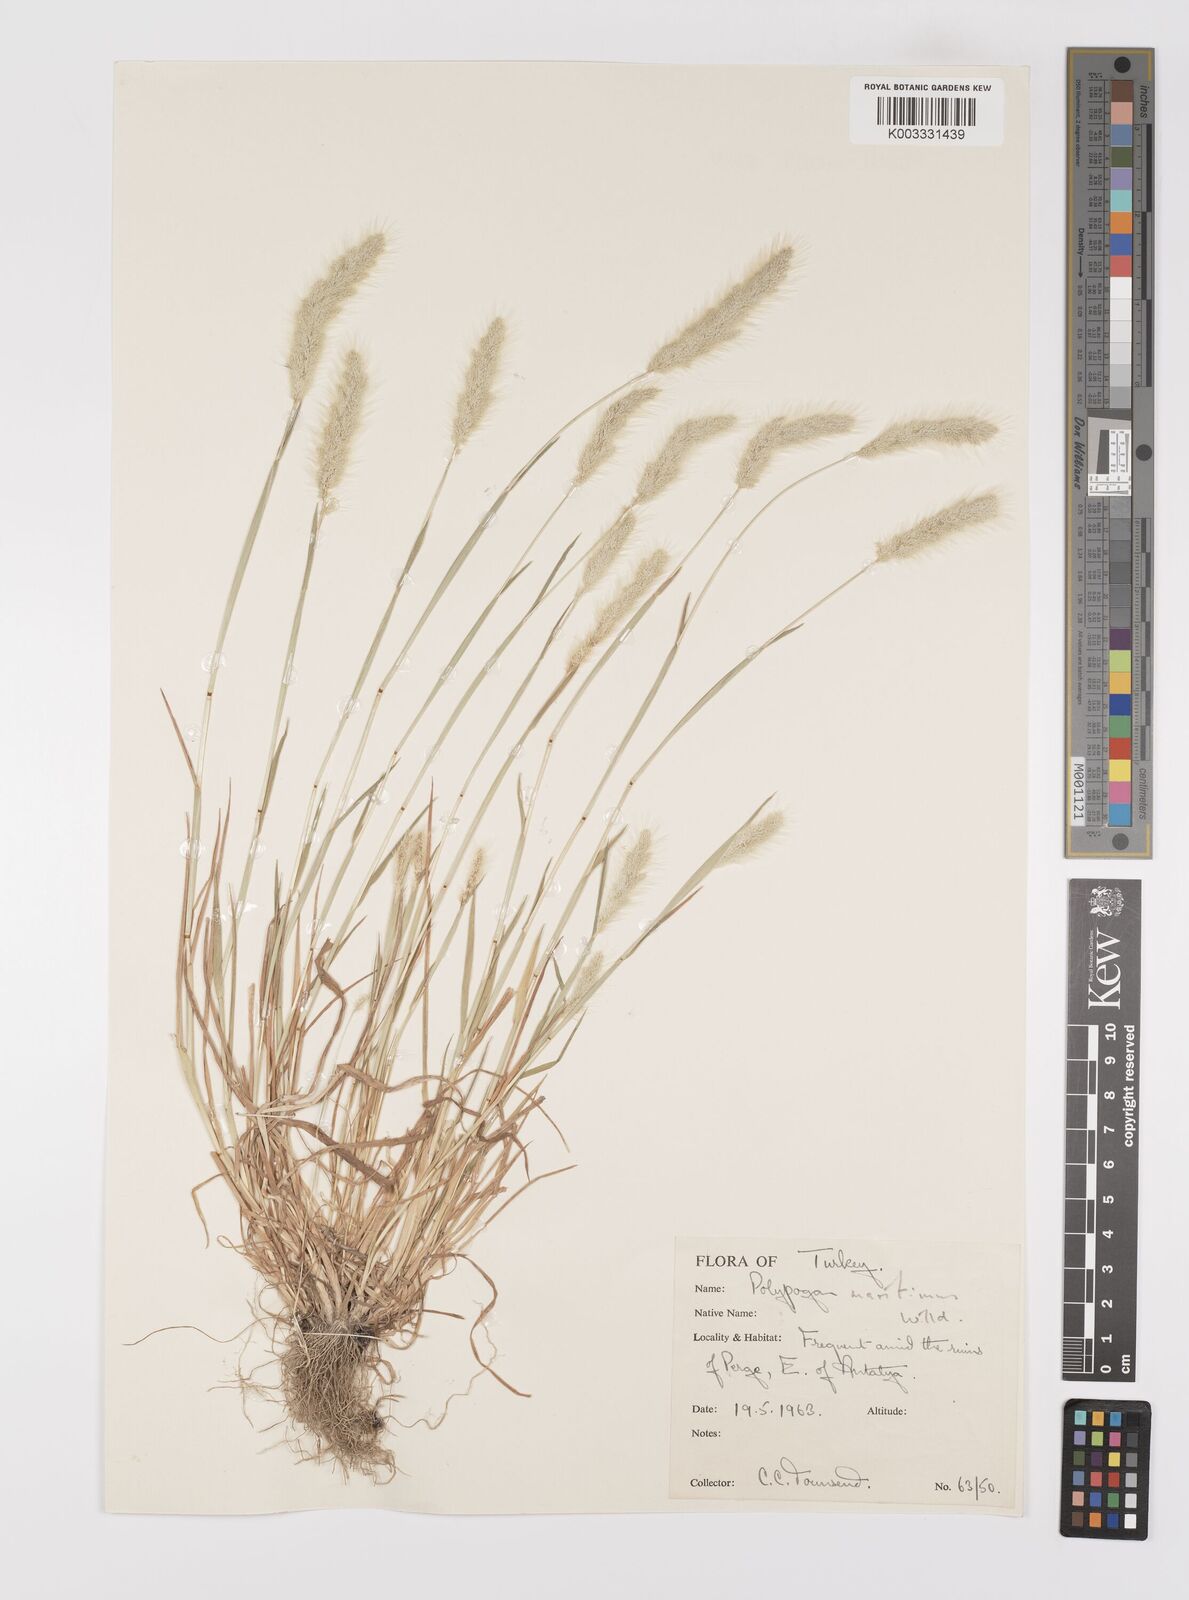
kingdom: Plantae
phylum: Tracheophyta
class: Liliopsida
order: Poales
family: Poaceae
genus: Polypogon
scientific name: Polypogon maritimus
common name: Mediterranean rabbitsfoot grass
